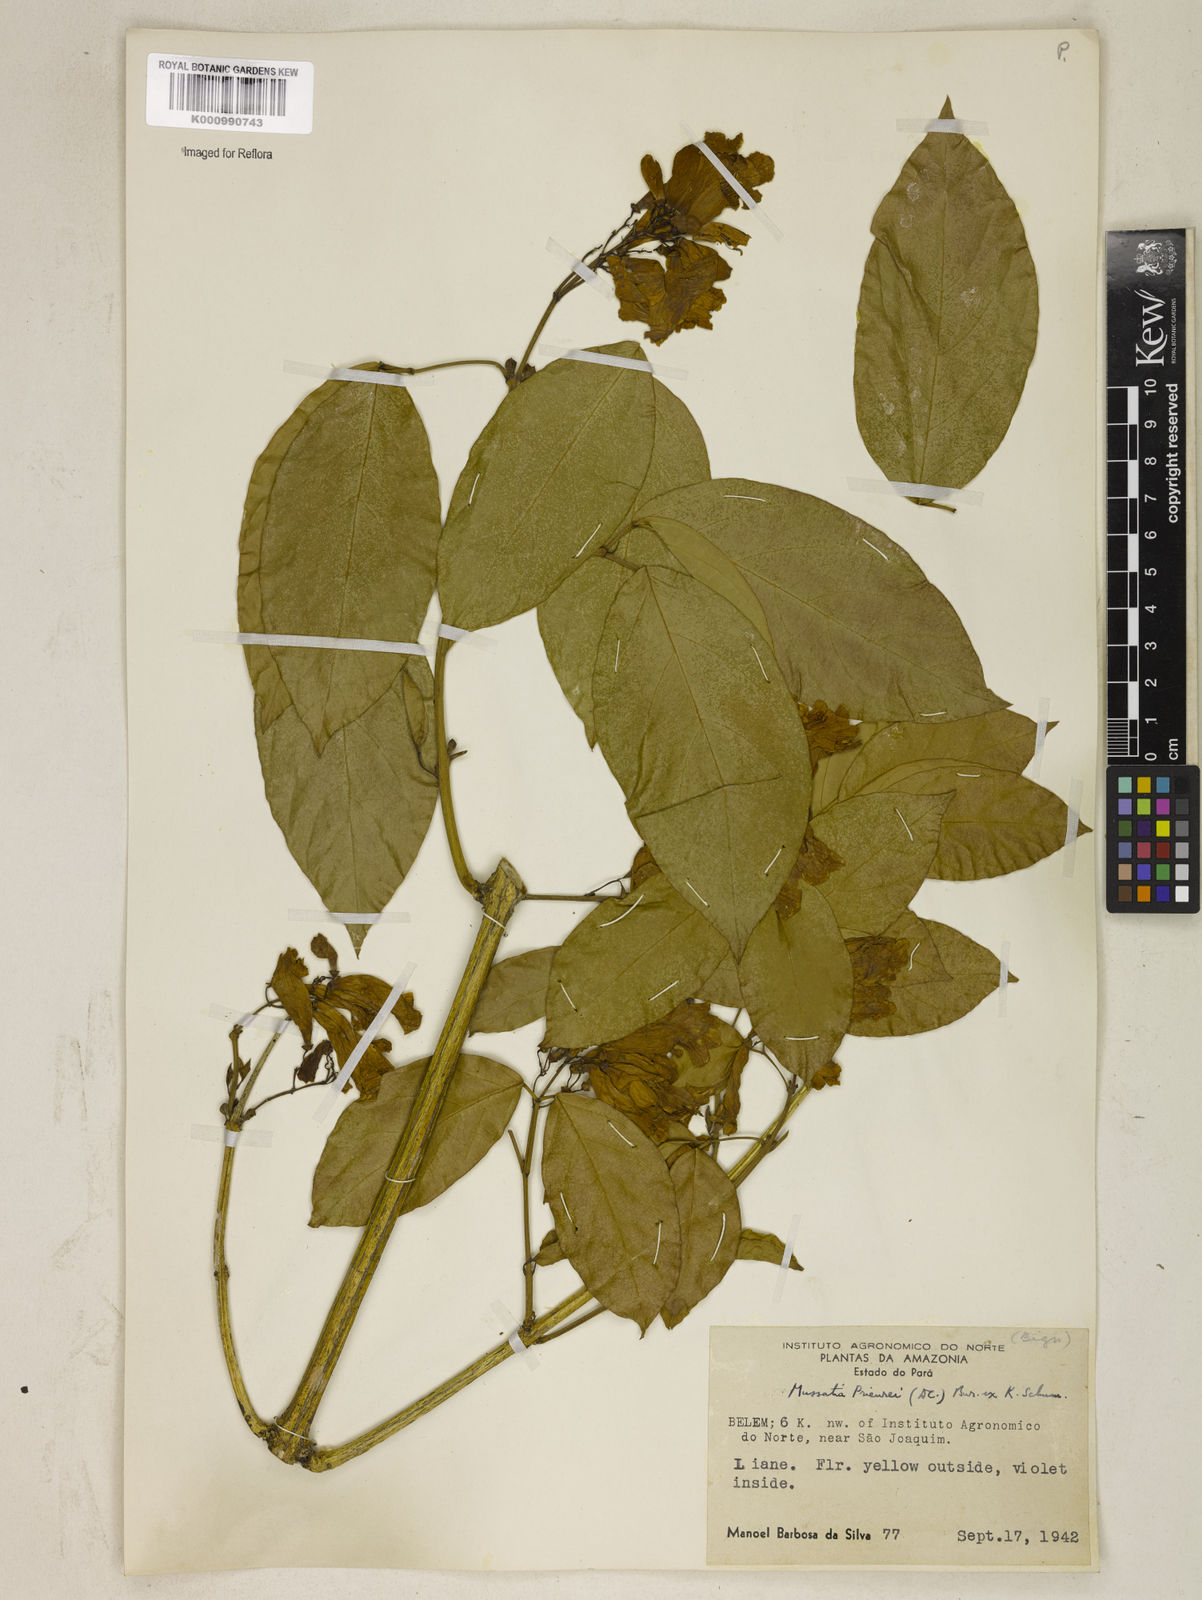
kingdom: Plantae
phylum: Tracheophyta
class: Magnoliopsida
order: Lamiales
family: Bignoniaceae
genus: Mussatia
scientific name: Mussatia
